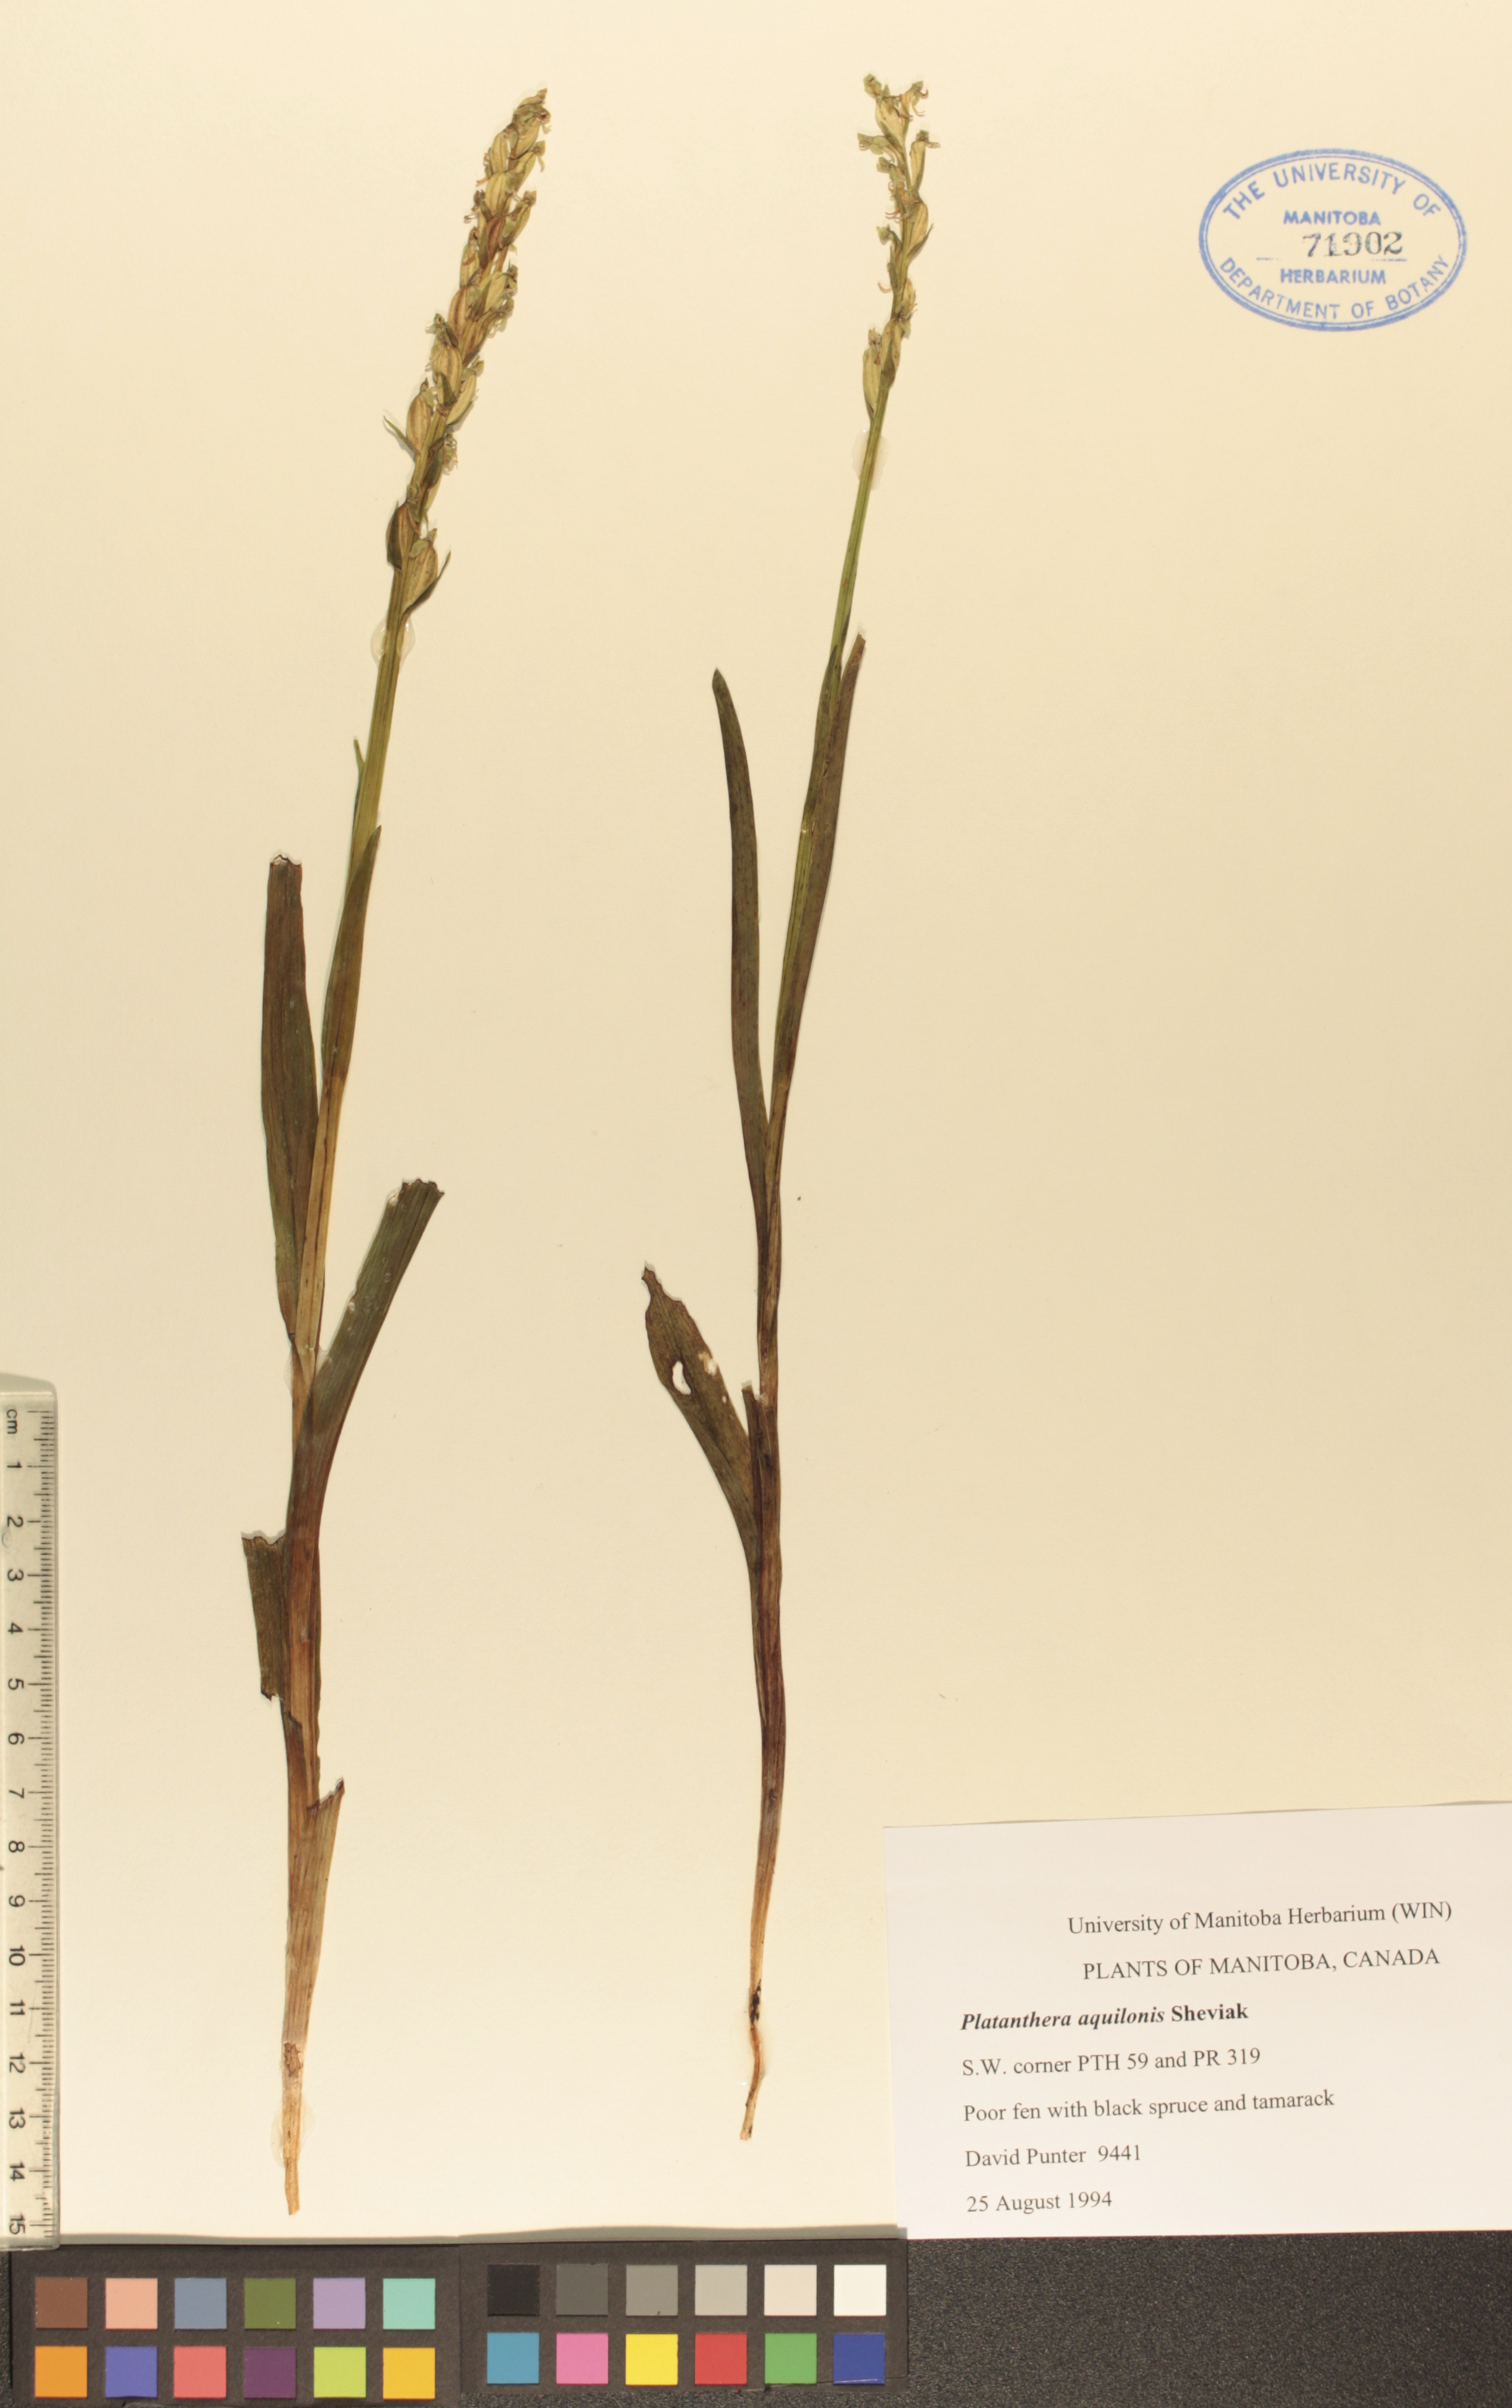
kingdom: Plantae
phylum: Tracheophyta
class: Liliopsida
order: Asparagales
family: Orchidaceae
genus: Platanthera
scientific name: Platanthera aquilonis
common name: Northern green orchid
